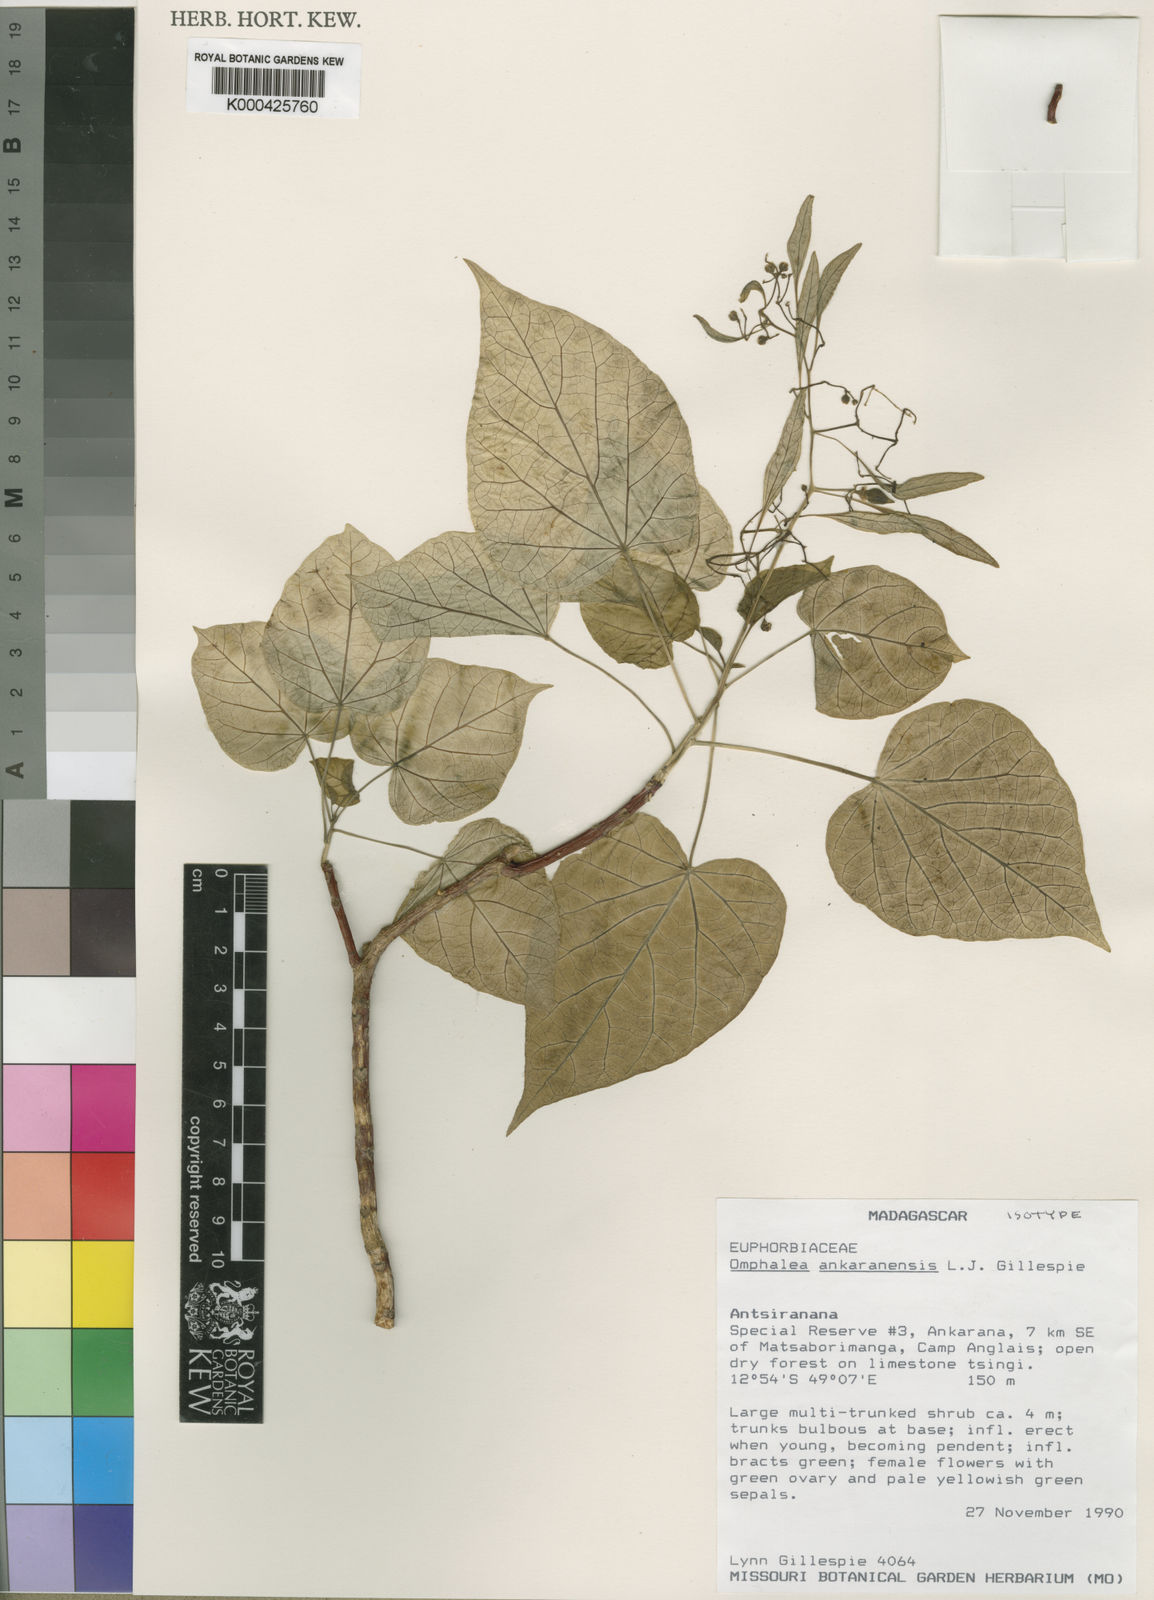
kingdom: Plantae
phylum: Tracheophyta
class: Magnoliopsida
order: Malpighiales
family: Euphorbiaceae
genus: Omphalea
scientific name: Omphalea ankaranensis
